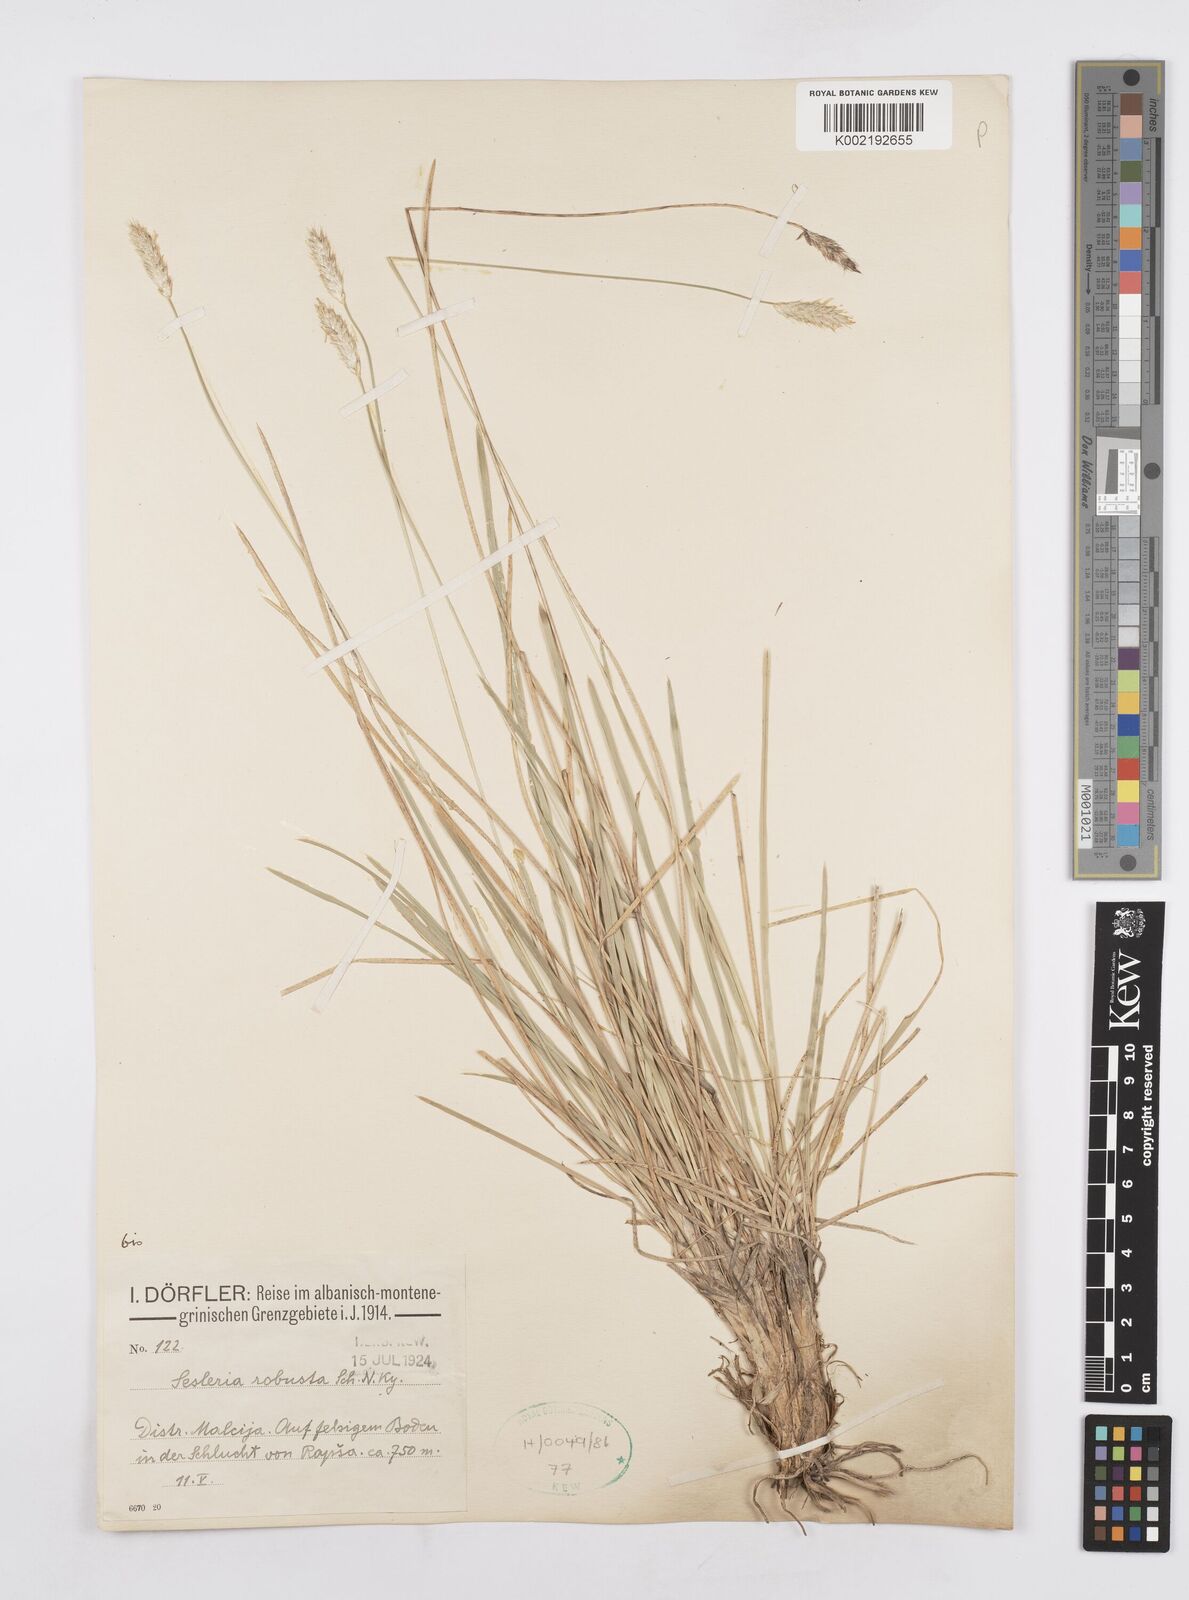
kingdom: Plantae
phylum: Tracheophyta
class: Liliopsida
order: Poales
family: Poaceae
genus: Sesleria
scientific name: Sesleria robusta
